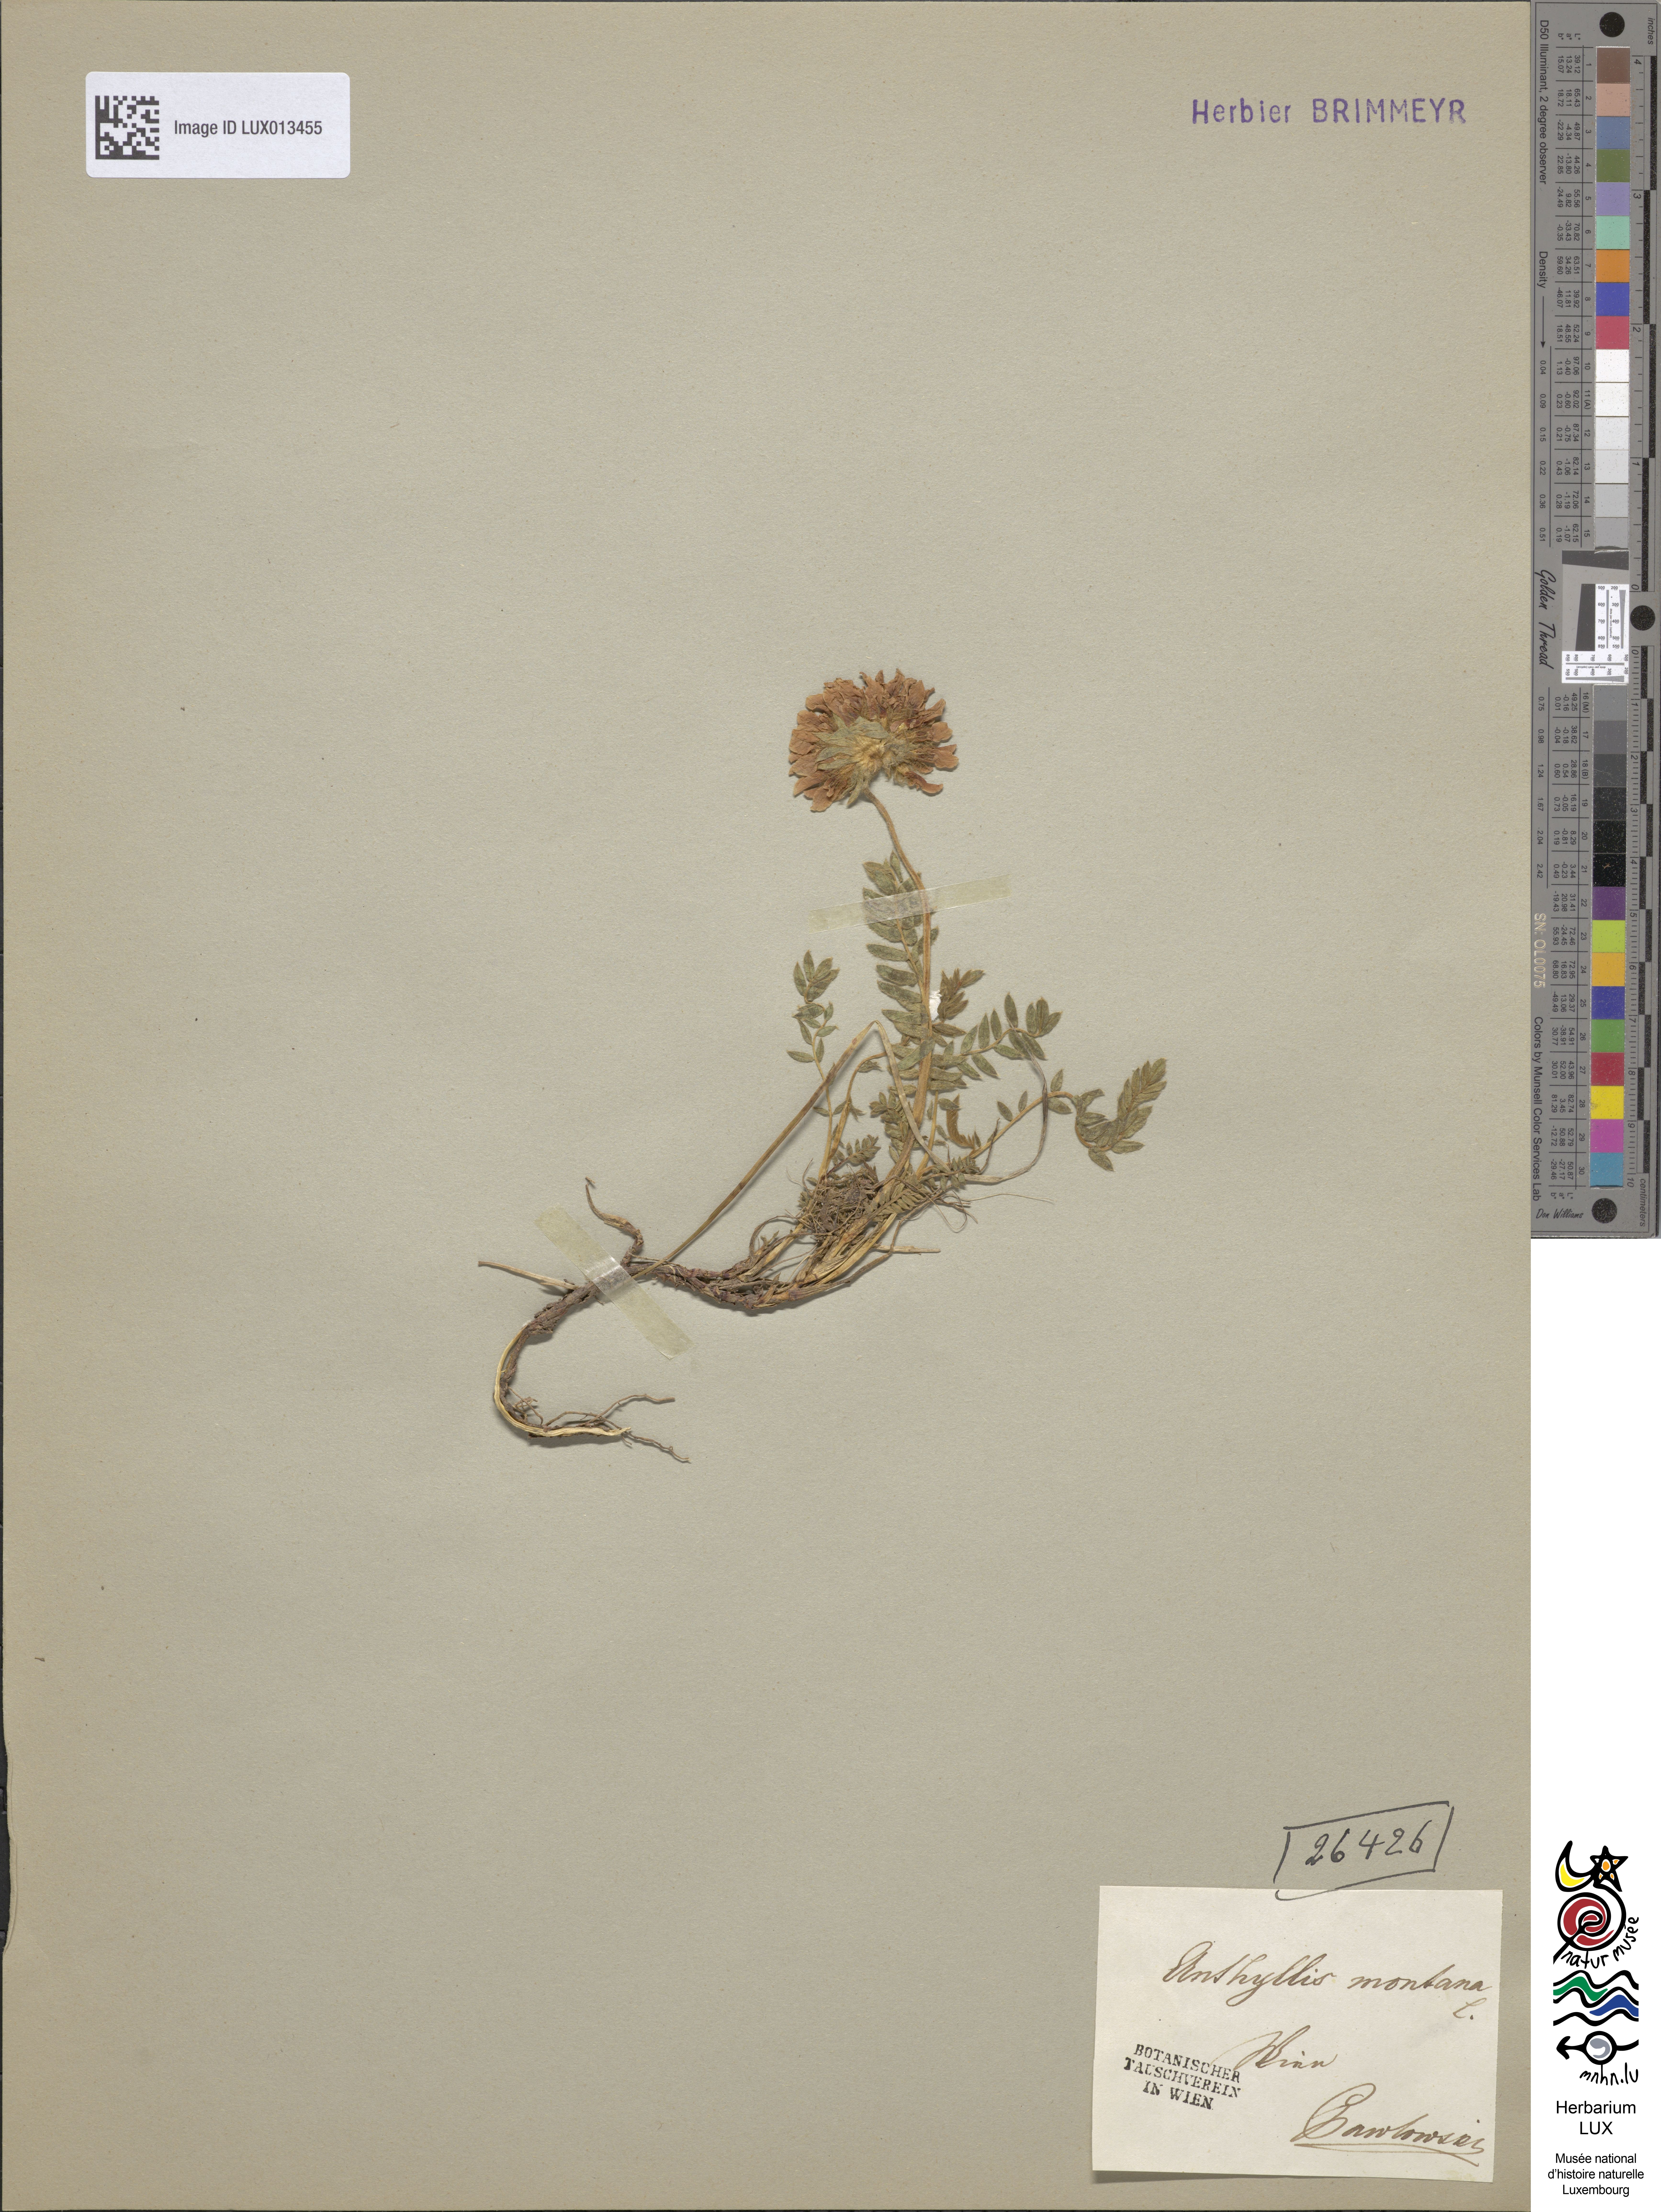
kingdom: Plantae
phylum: Tracheophyta
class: Magnoliopsida
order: Fabales
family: Fabaceae
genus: Anthyllis
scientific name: Anthyllis montana
